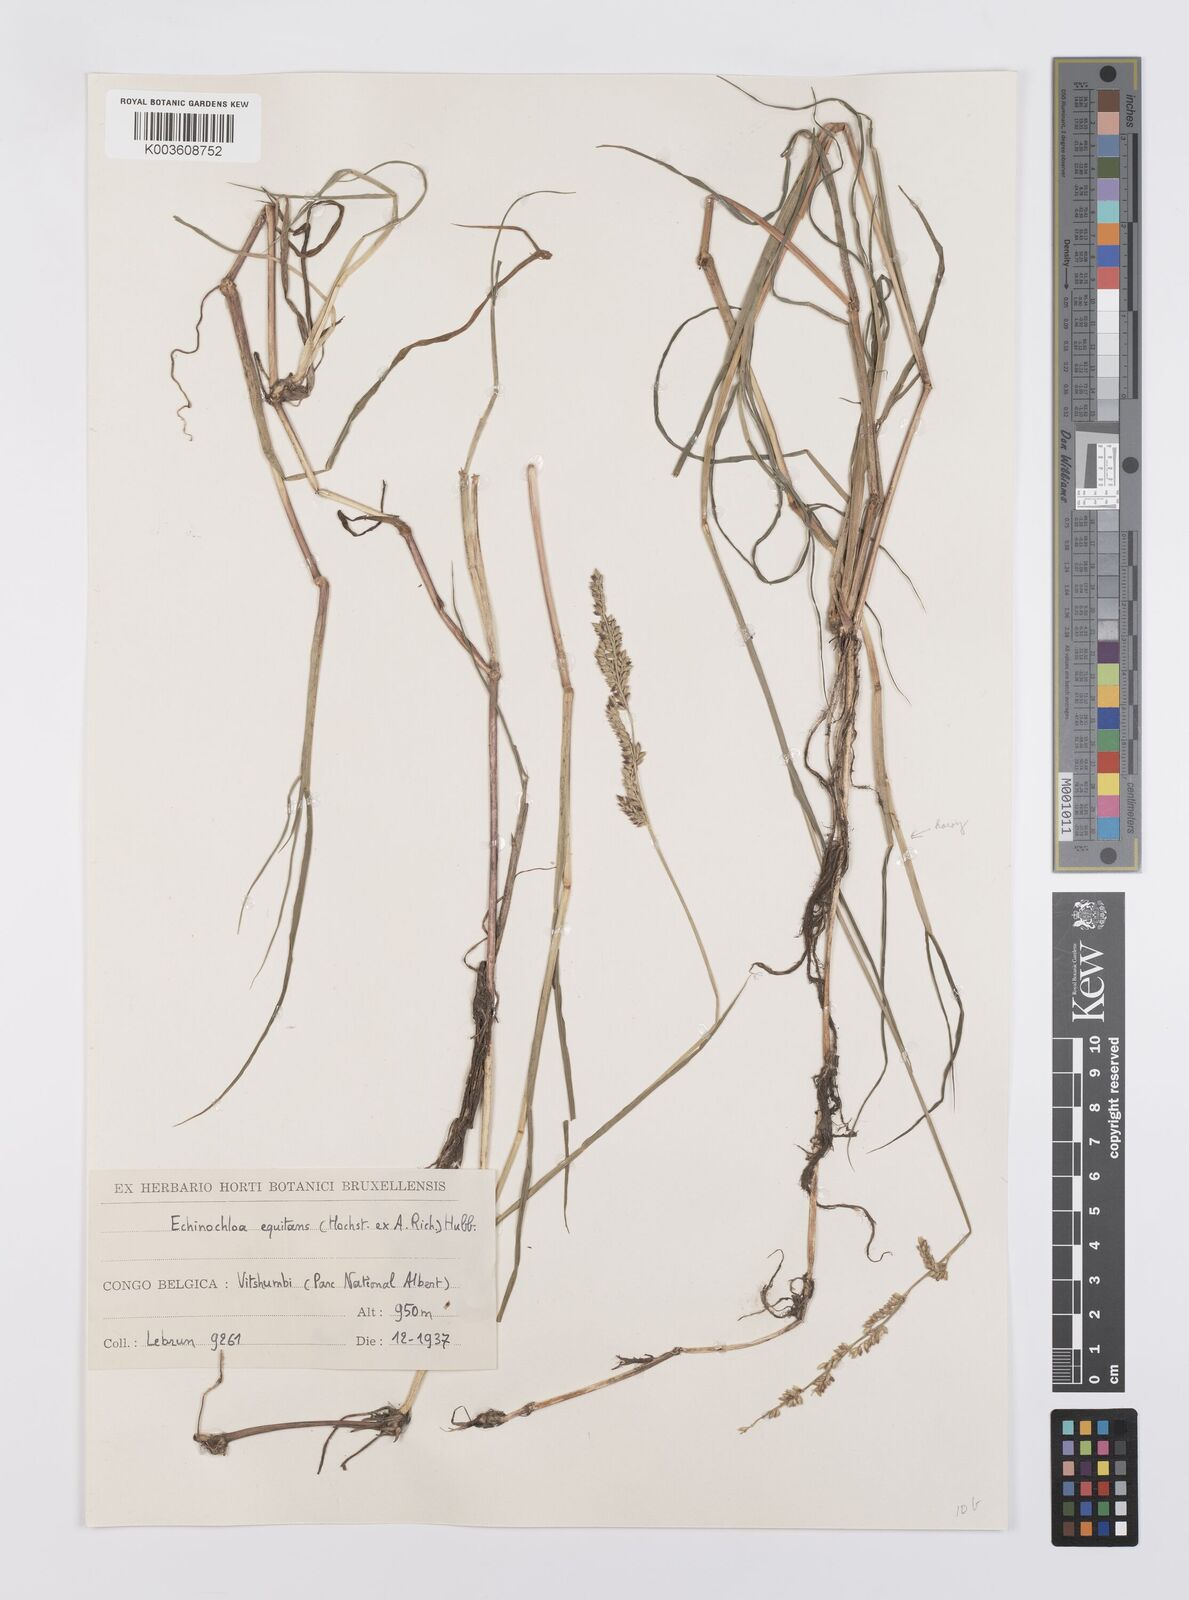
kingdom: Plantae
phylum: Tracheophyta
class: Liliopsida
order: Poales
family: Poaceae
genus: Echinochloa
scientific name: Echinochloa pyramidalis
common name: Antelope grass
